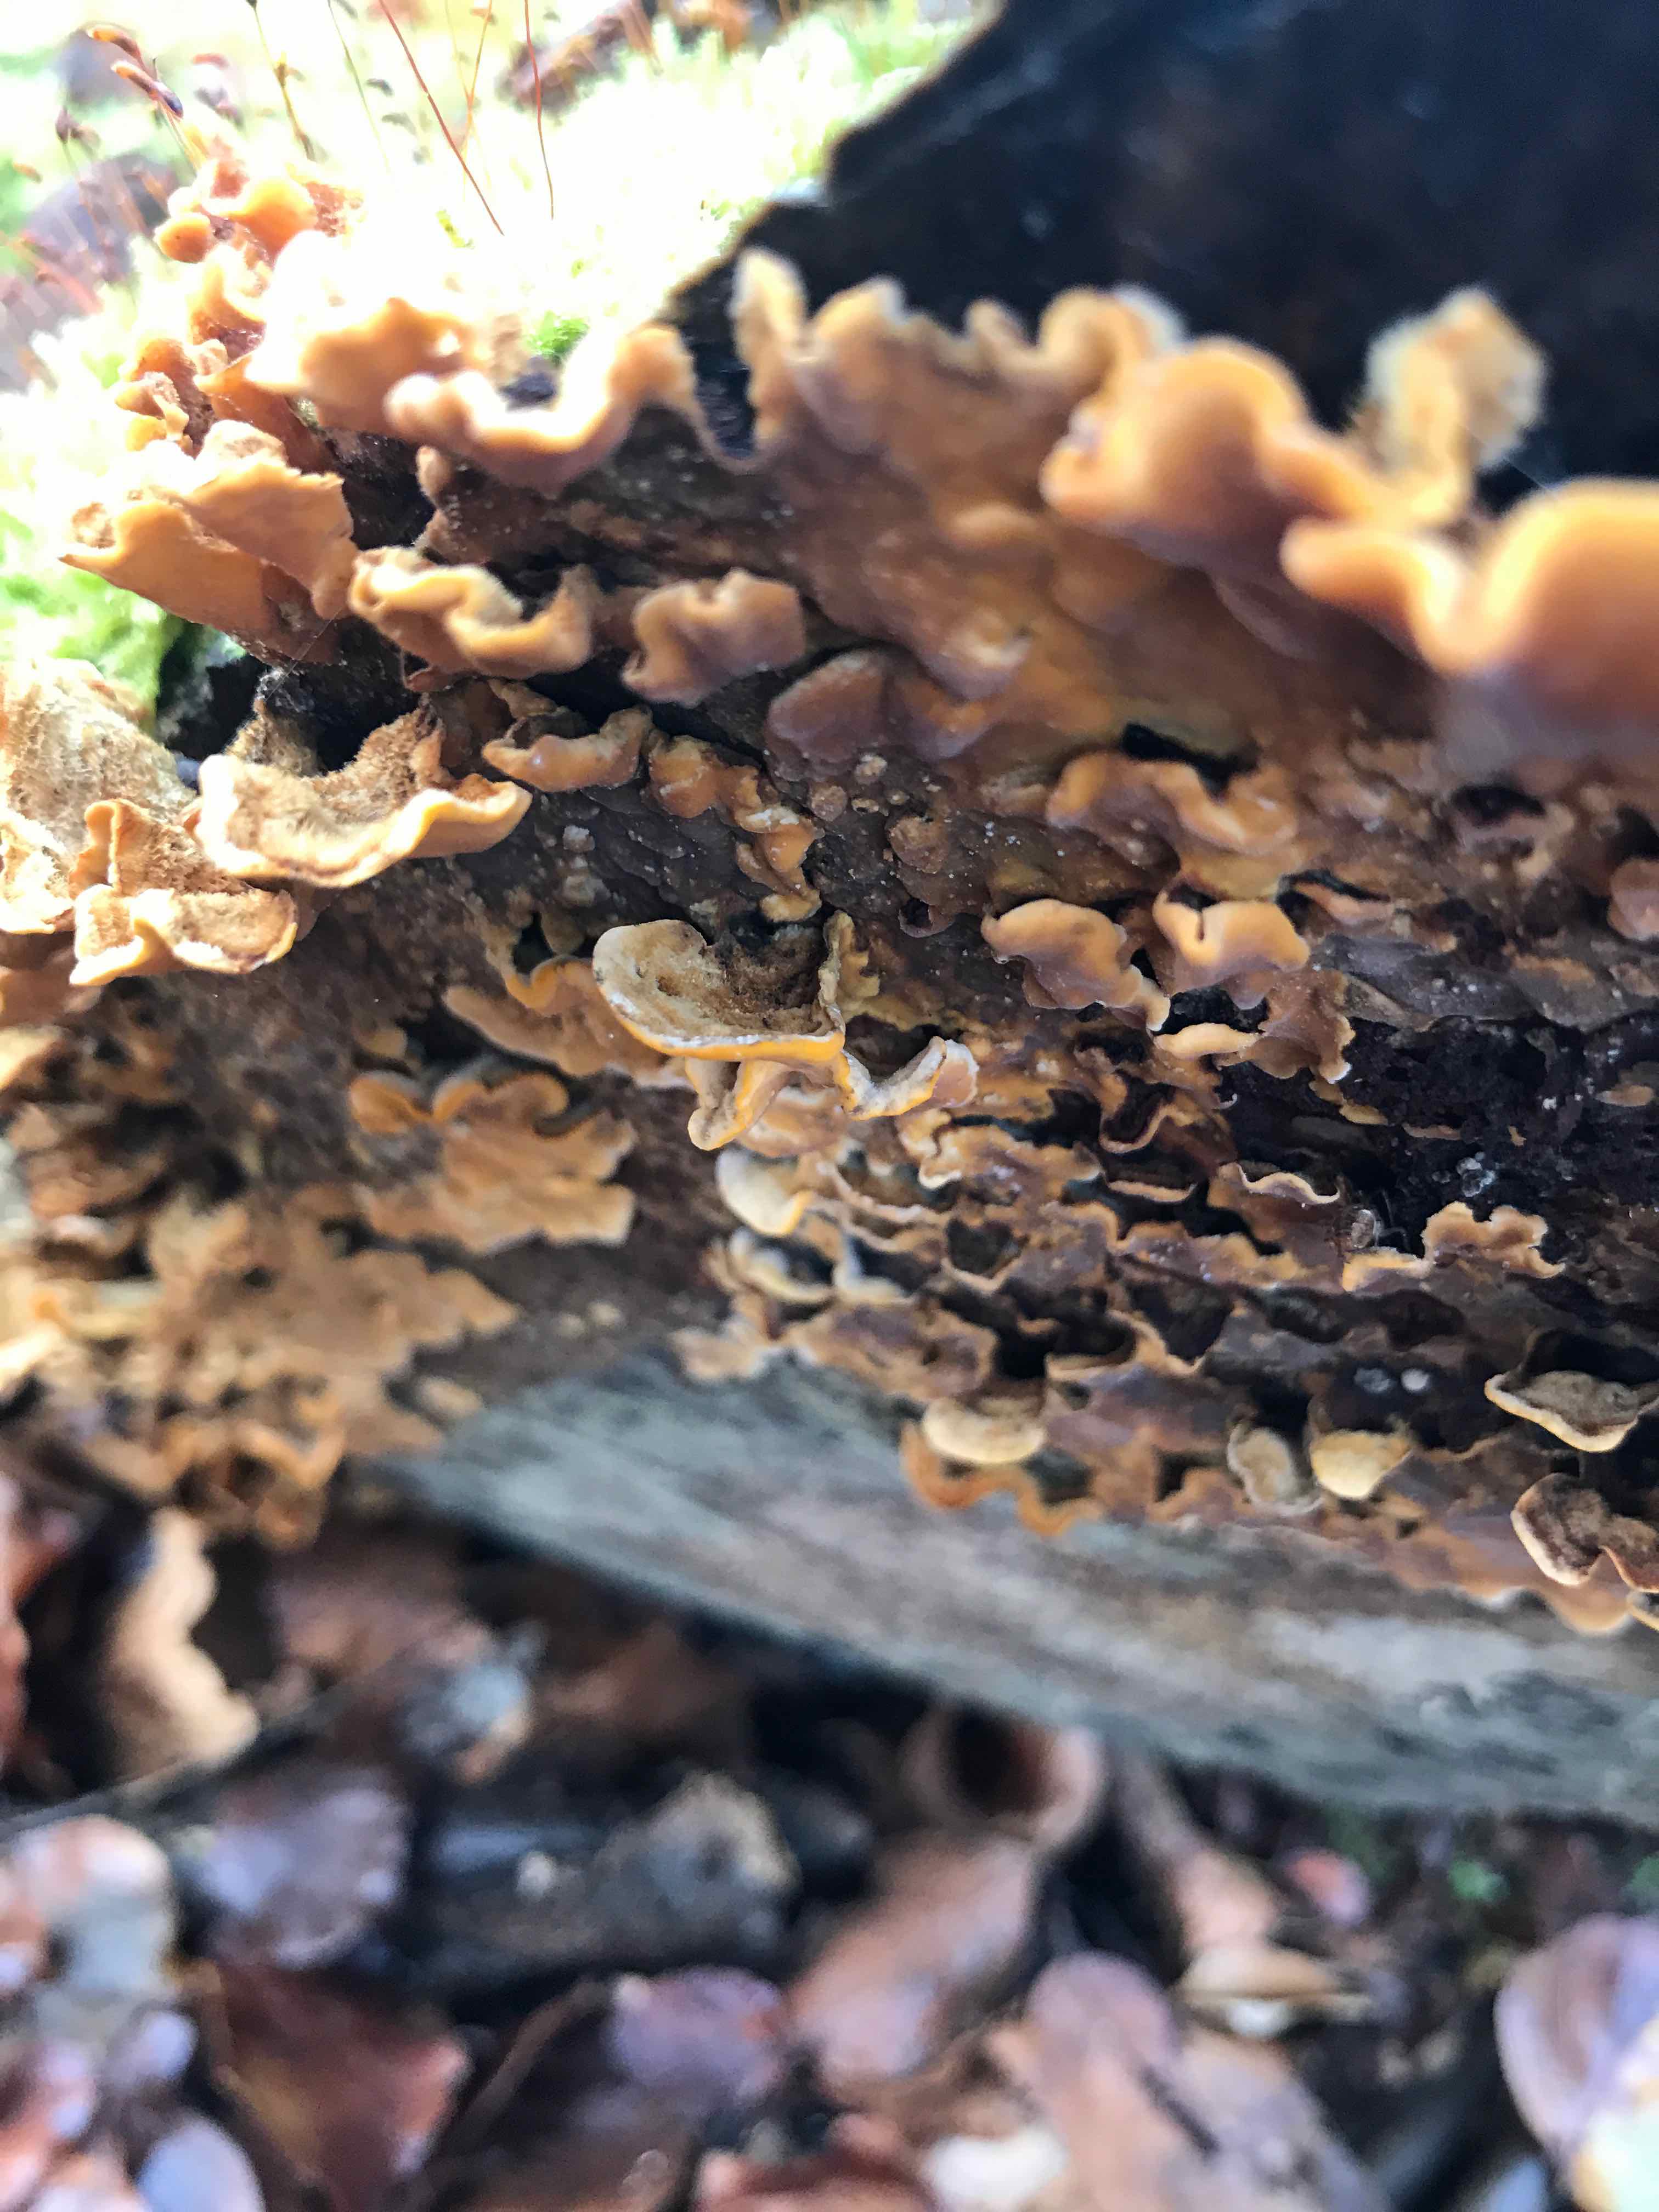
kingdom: Fungi
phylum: Basidiomycota
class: Agaricomycetes
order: Russulales
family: Stereaceae
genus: Stereum
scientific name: Stereum hirsutum
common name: håret lædersvamp
